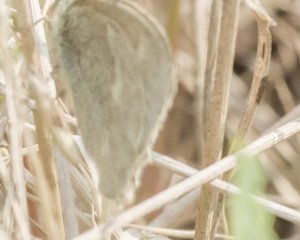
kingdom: Animalia
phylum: Arthropoda
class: Insecta
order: Lepidoptera
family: Nymphalidae
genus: Coenonympha
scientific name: Coenonympha tullia
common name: Large Heath
